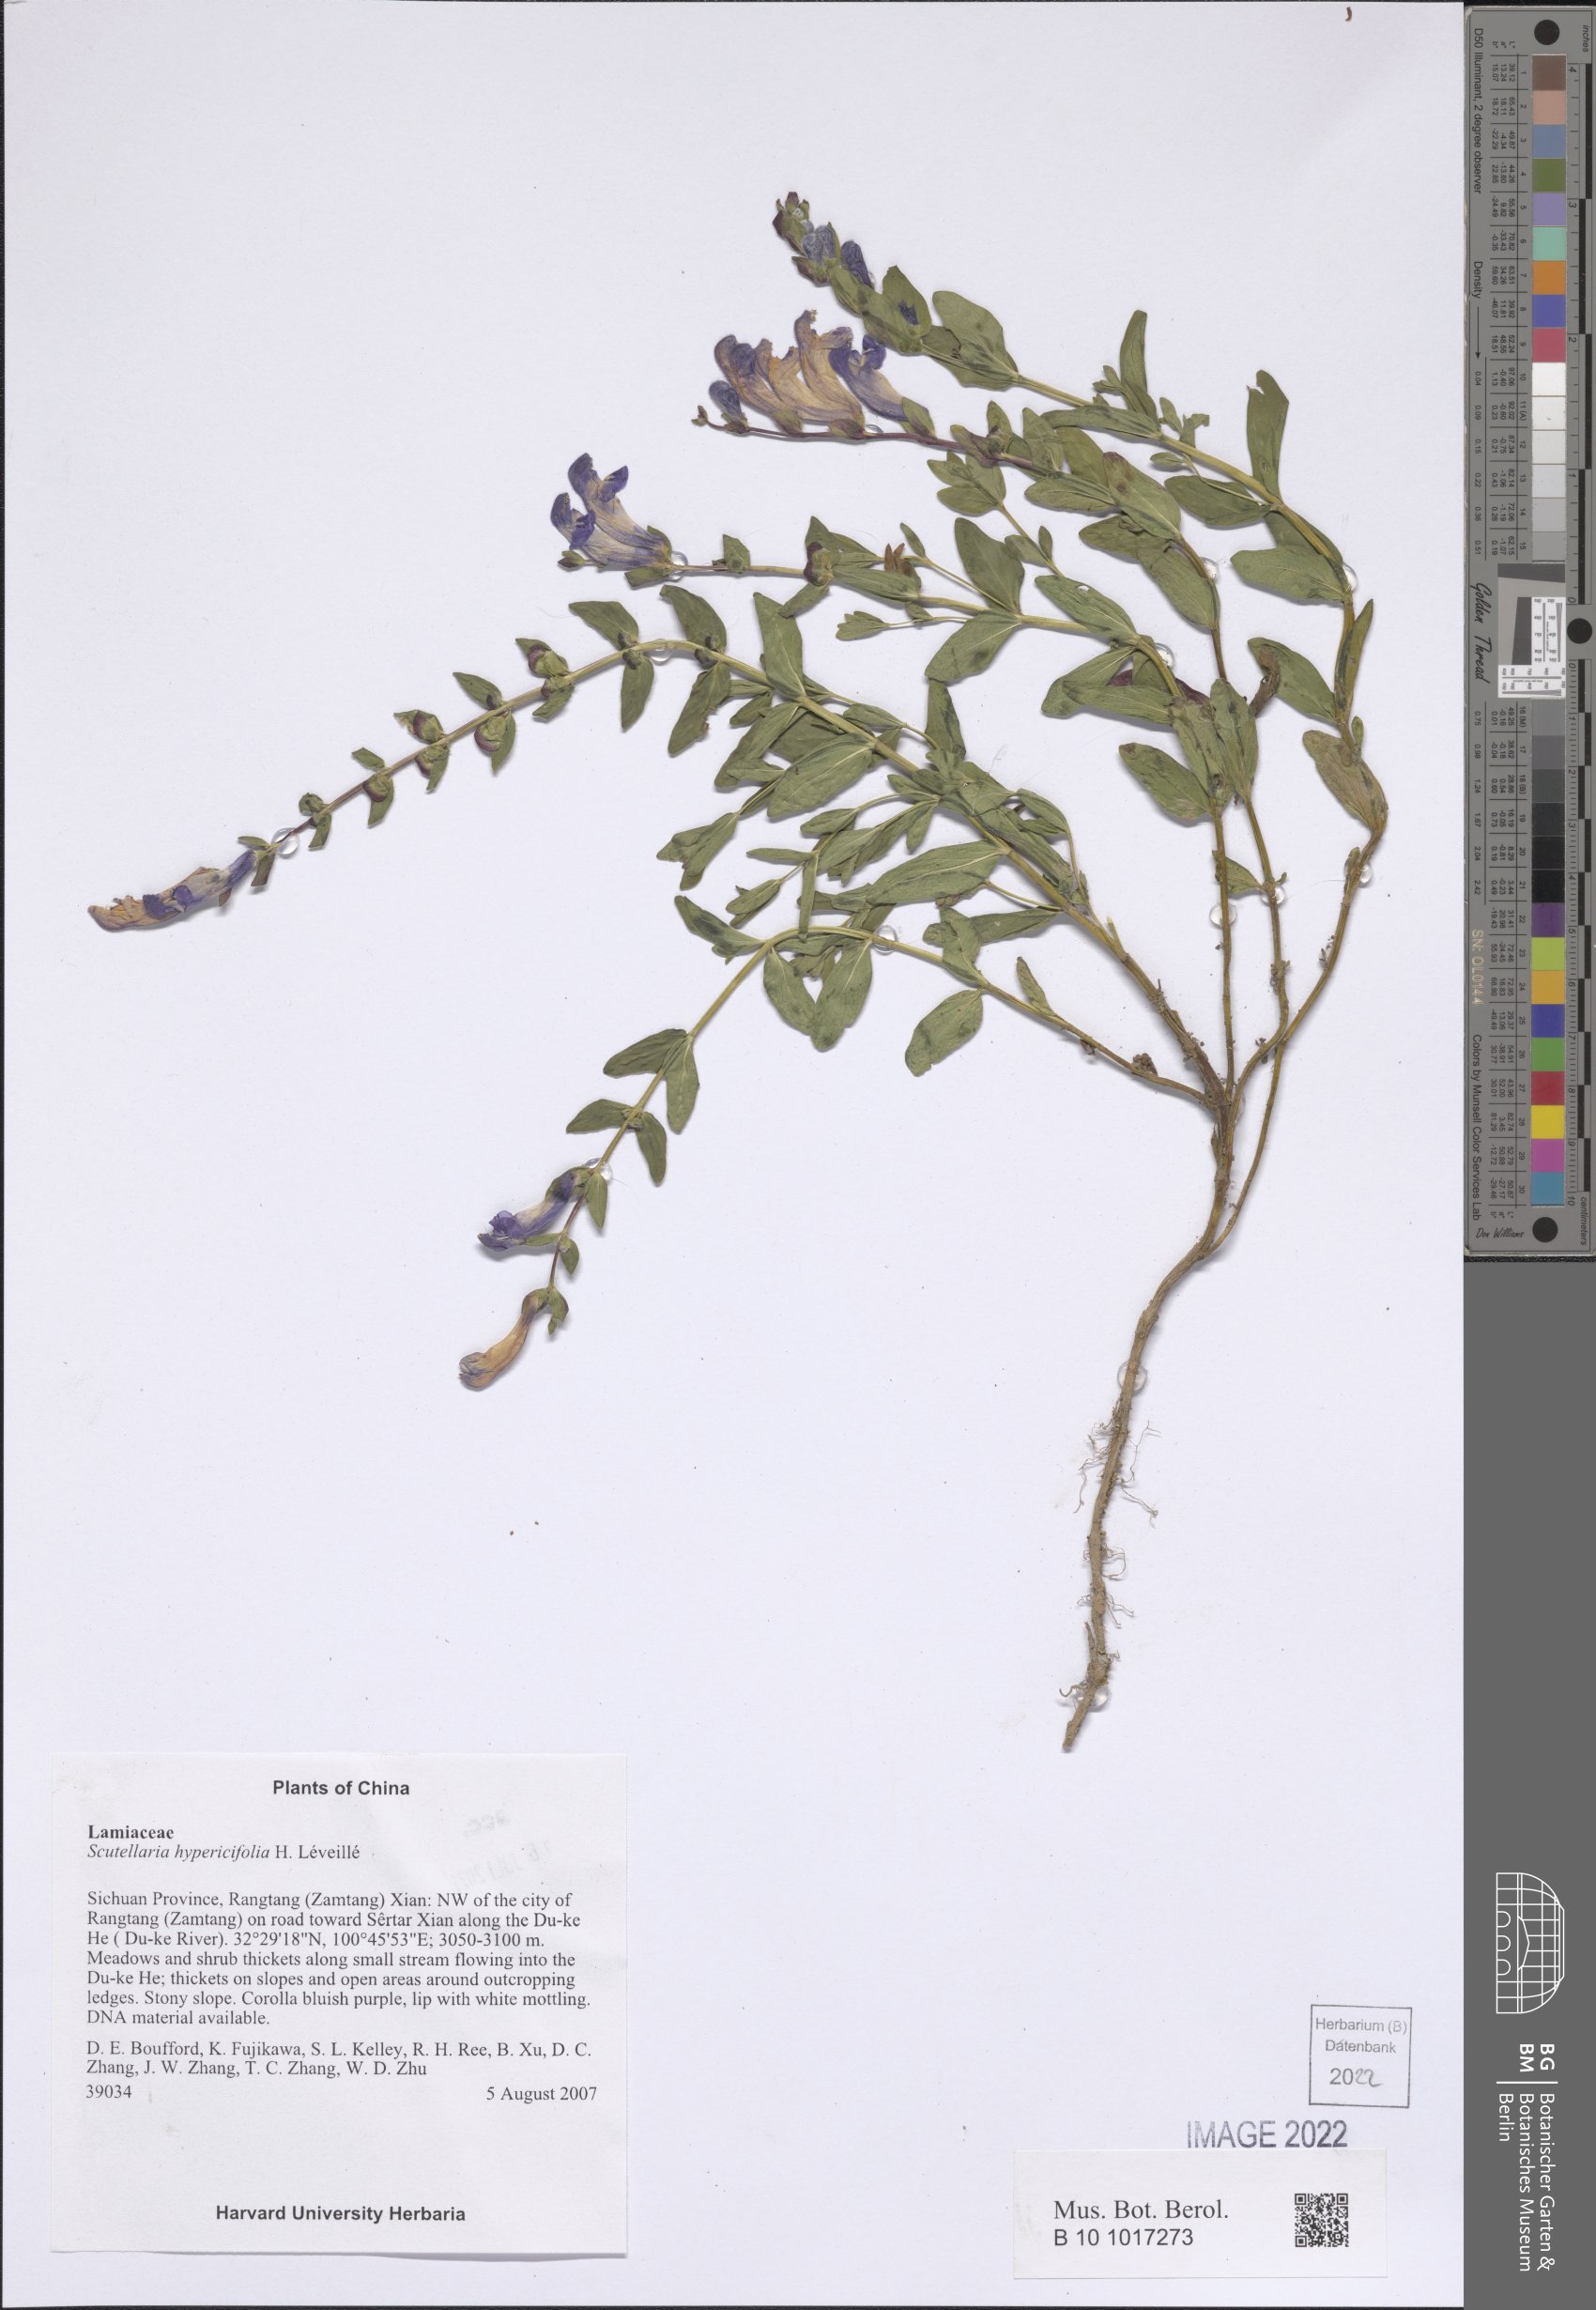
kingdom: Plantae
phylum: Tracheophyta
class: Magnoliopsida
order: Lamiales
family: Lamiaceae
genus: Scutellaria
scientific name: Scutellaria hypericifolia
